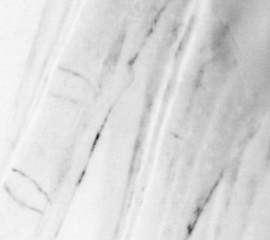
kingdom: Animalia
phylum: Chordata
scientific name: Chordata
